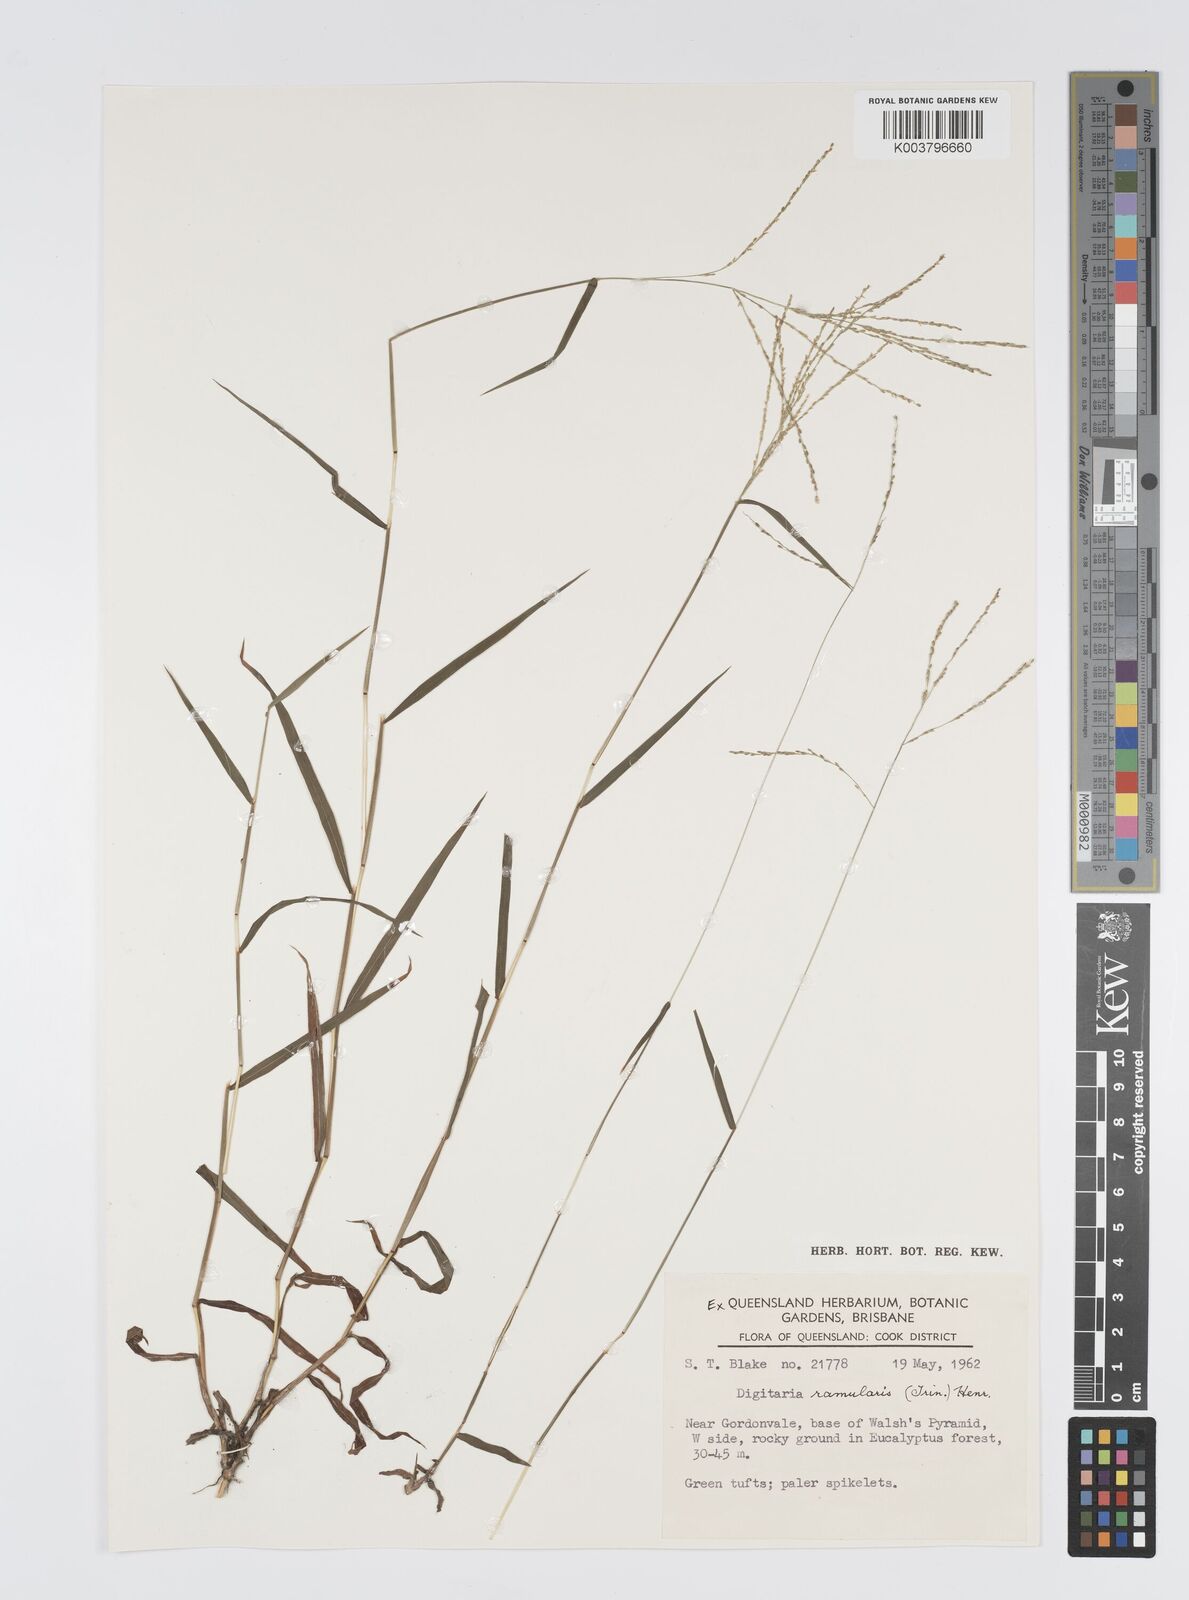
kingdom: Plantae
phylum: Tracheophyta
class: Liliopsida
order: Poales
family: Poaceae
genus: Digitaria
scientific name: Digitaria ramularis
